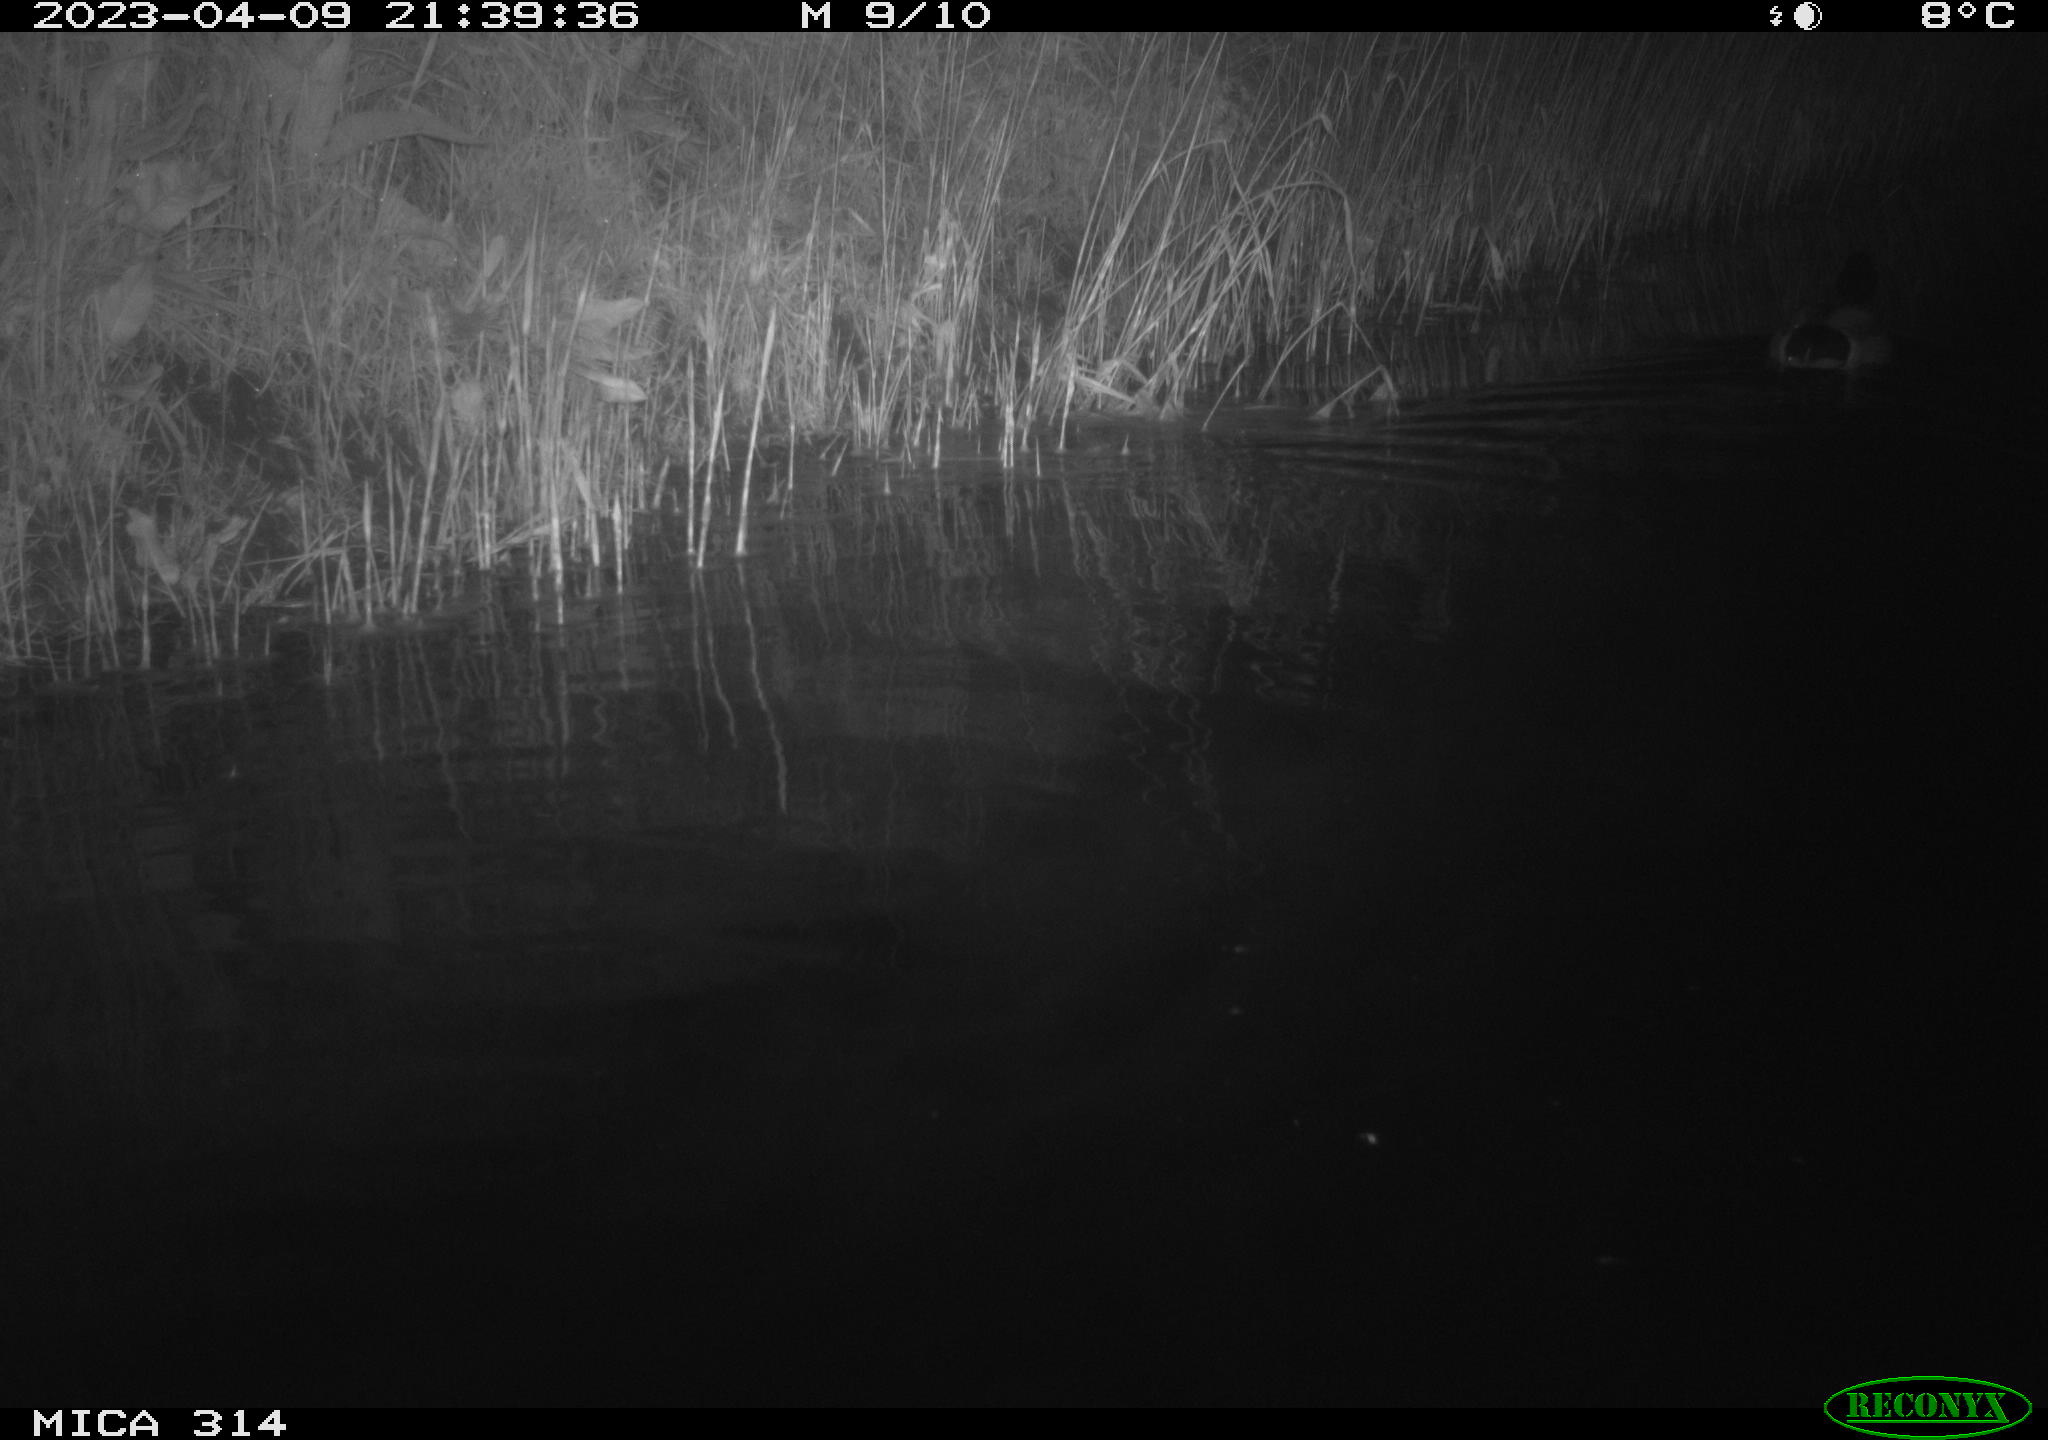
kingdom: Animalia
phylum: Chordata
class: Aves
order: Anseriformes
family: Anatidae
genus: Anas
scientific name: Anas
